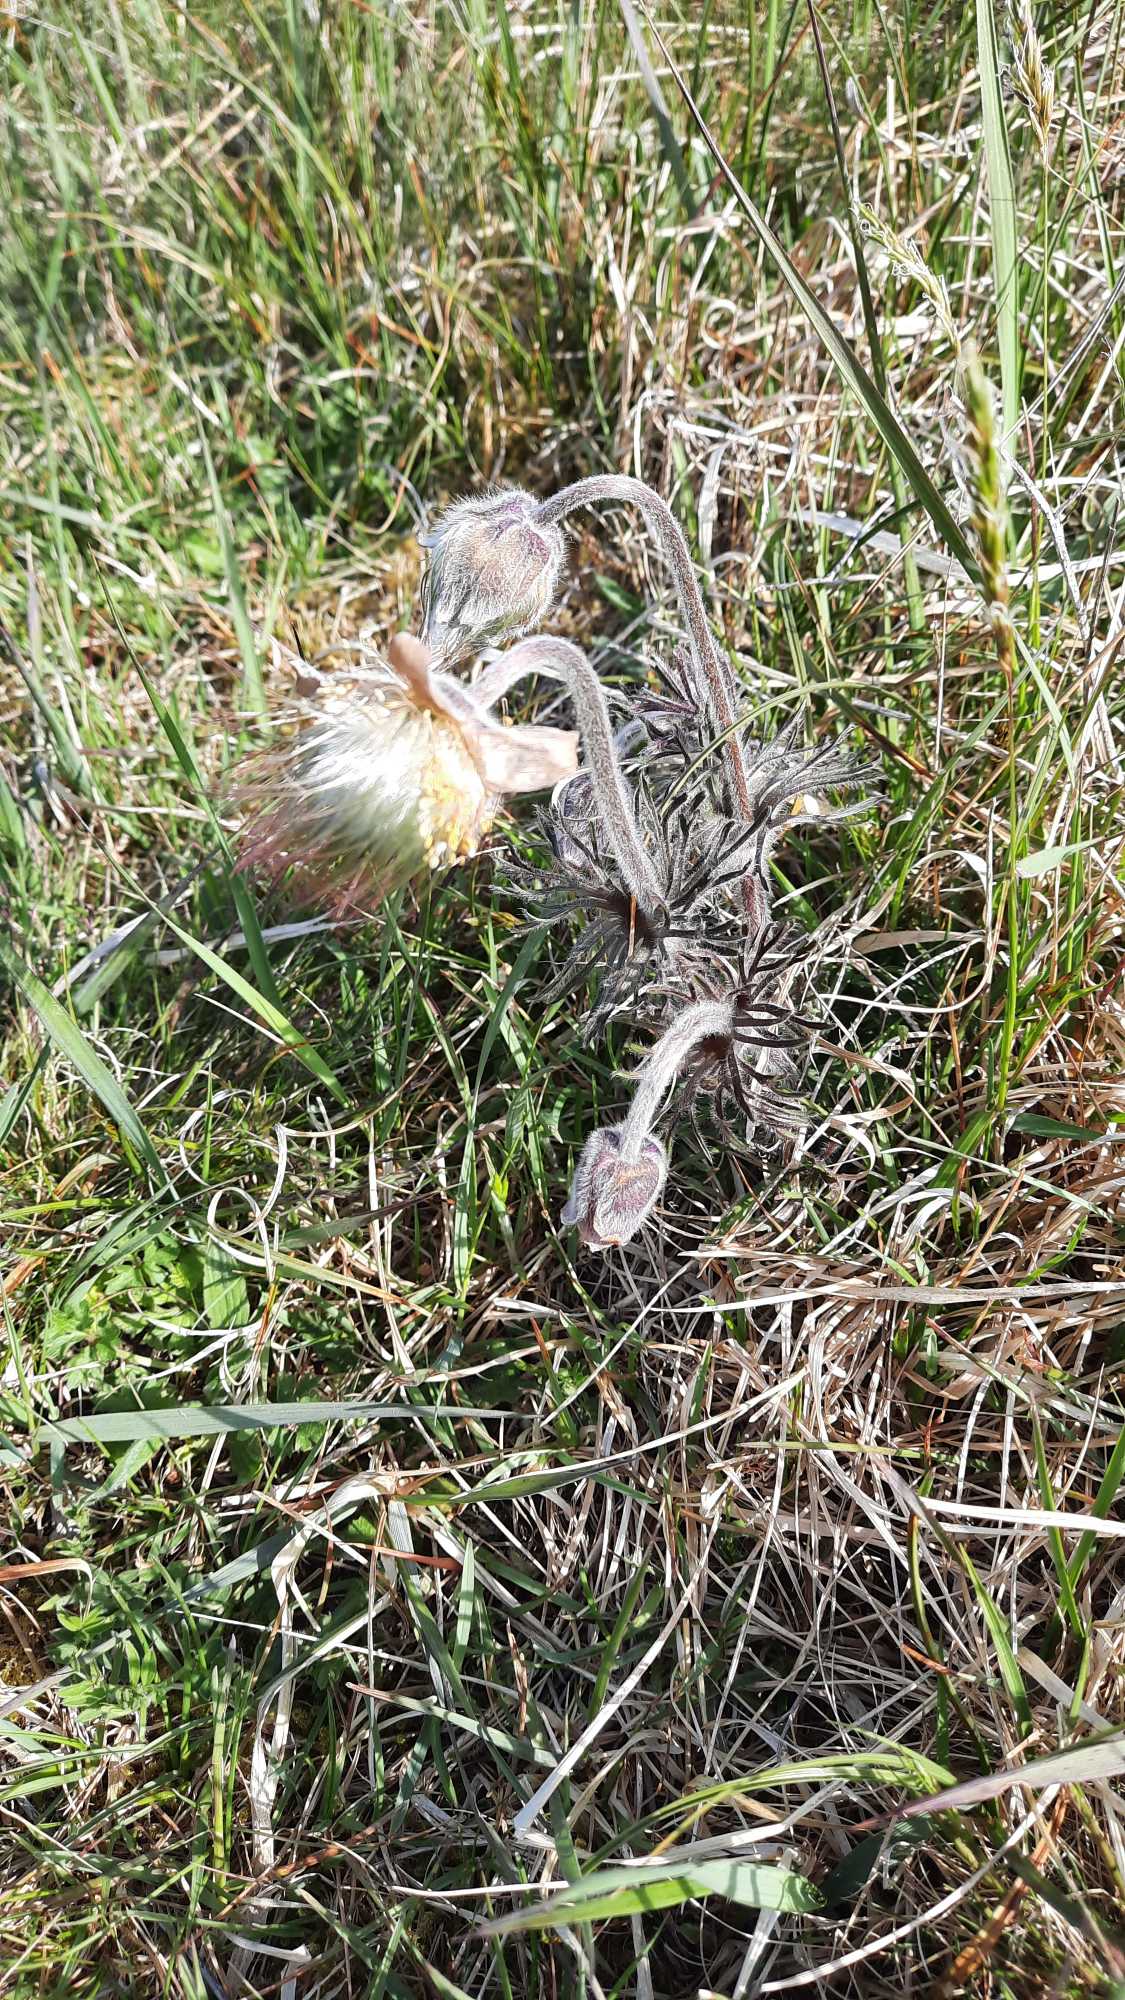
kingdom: Plantae
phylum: Tracheophyta
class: Magnoliopsida
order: Ranunculales
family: Ranunculaceae
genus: Pulsatilla
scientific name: Pulsatilla pratensis
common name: Nikkende kobjælde
